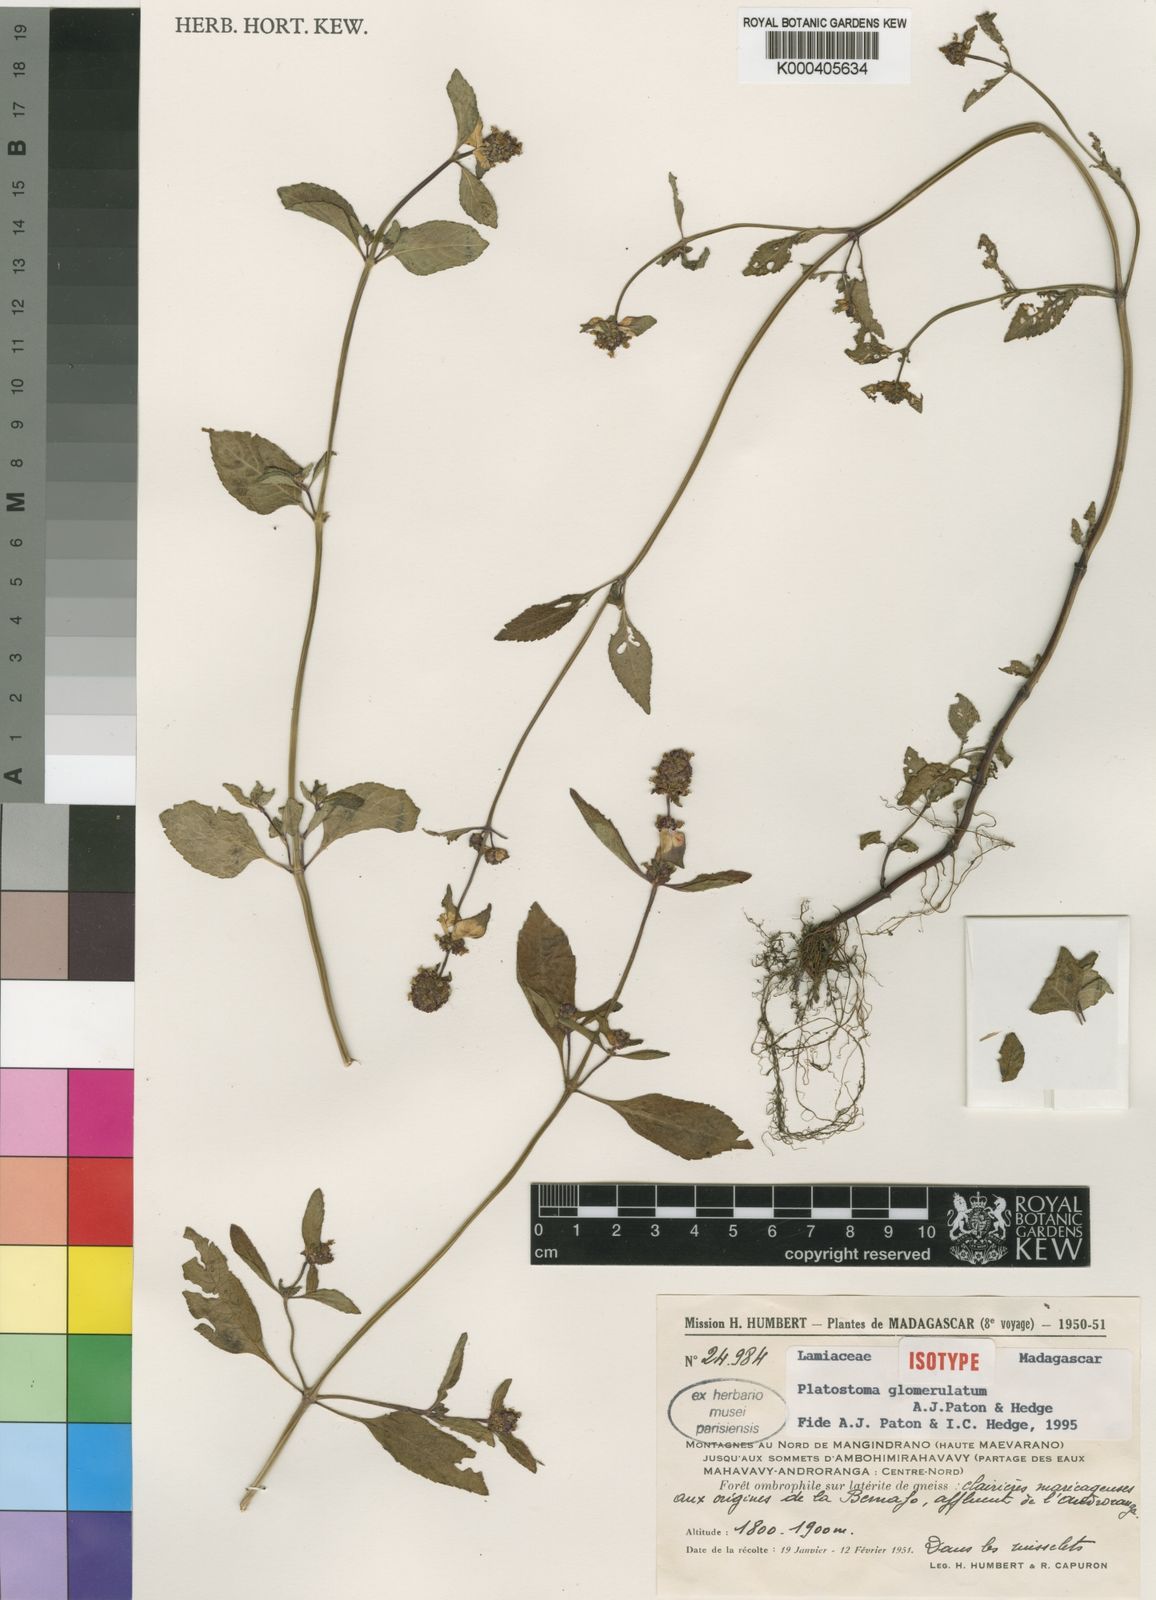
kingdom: Plantae
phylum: Tracheophyta
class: Magnoliopsida
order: Lamiales
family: Lamiaceae
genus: Platostoma
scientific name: Platostoma glomerulatum
